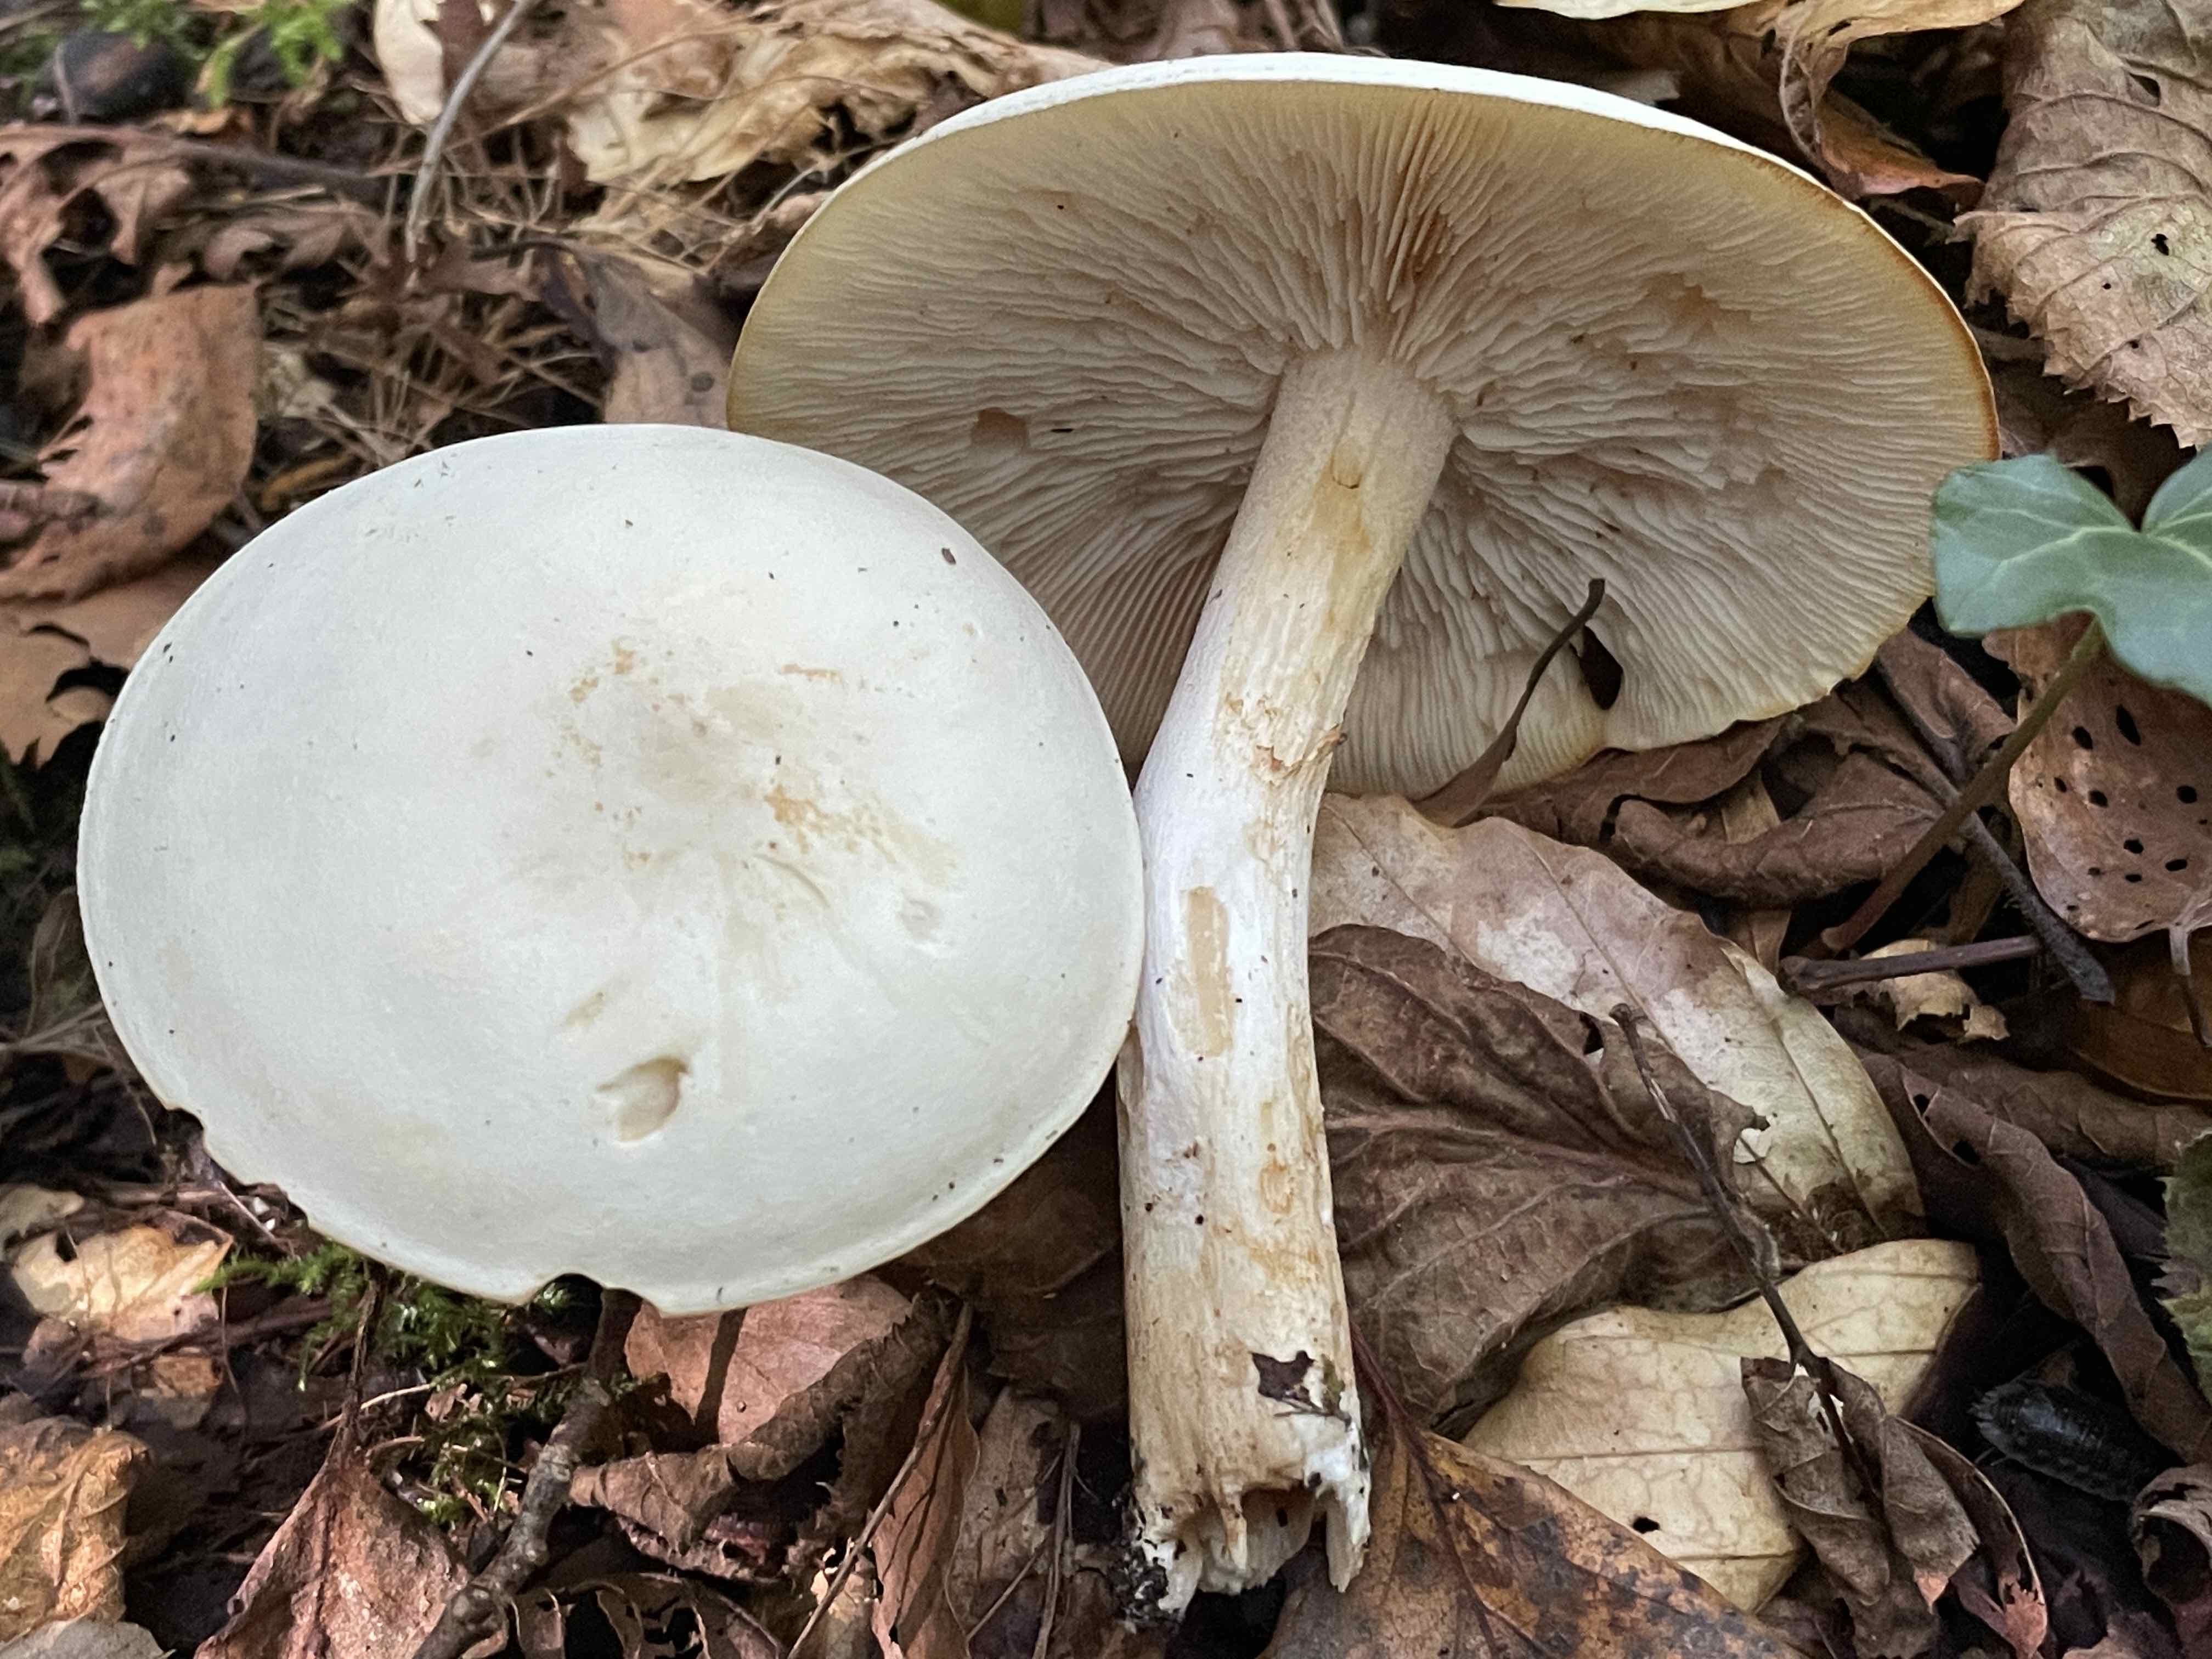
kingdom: Fungi
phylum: Basidiomycota
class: Agaricomycetes
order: Agaricales
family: Tricholomataceae
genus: Tricholoma
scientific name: Tricholoma stiparophyllum
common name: hvid ridderhat
